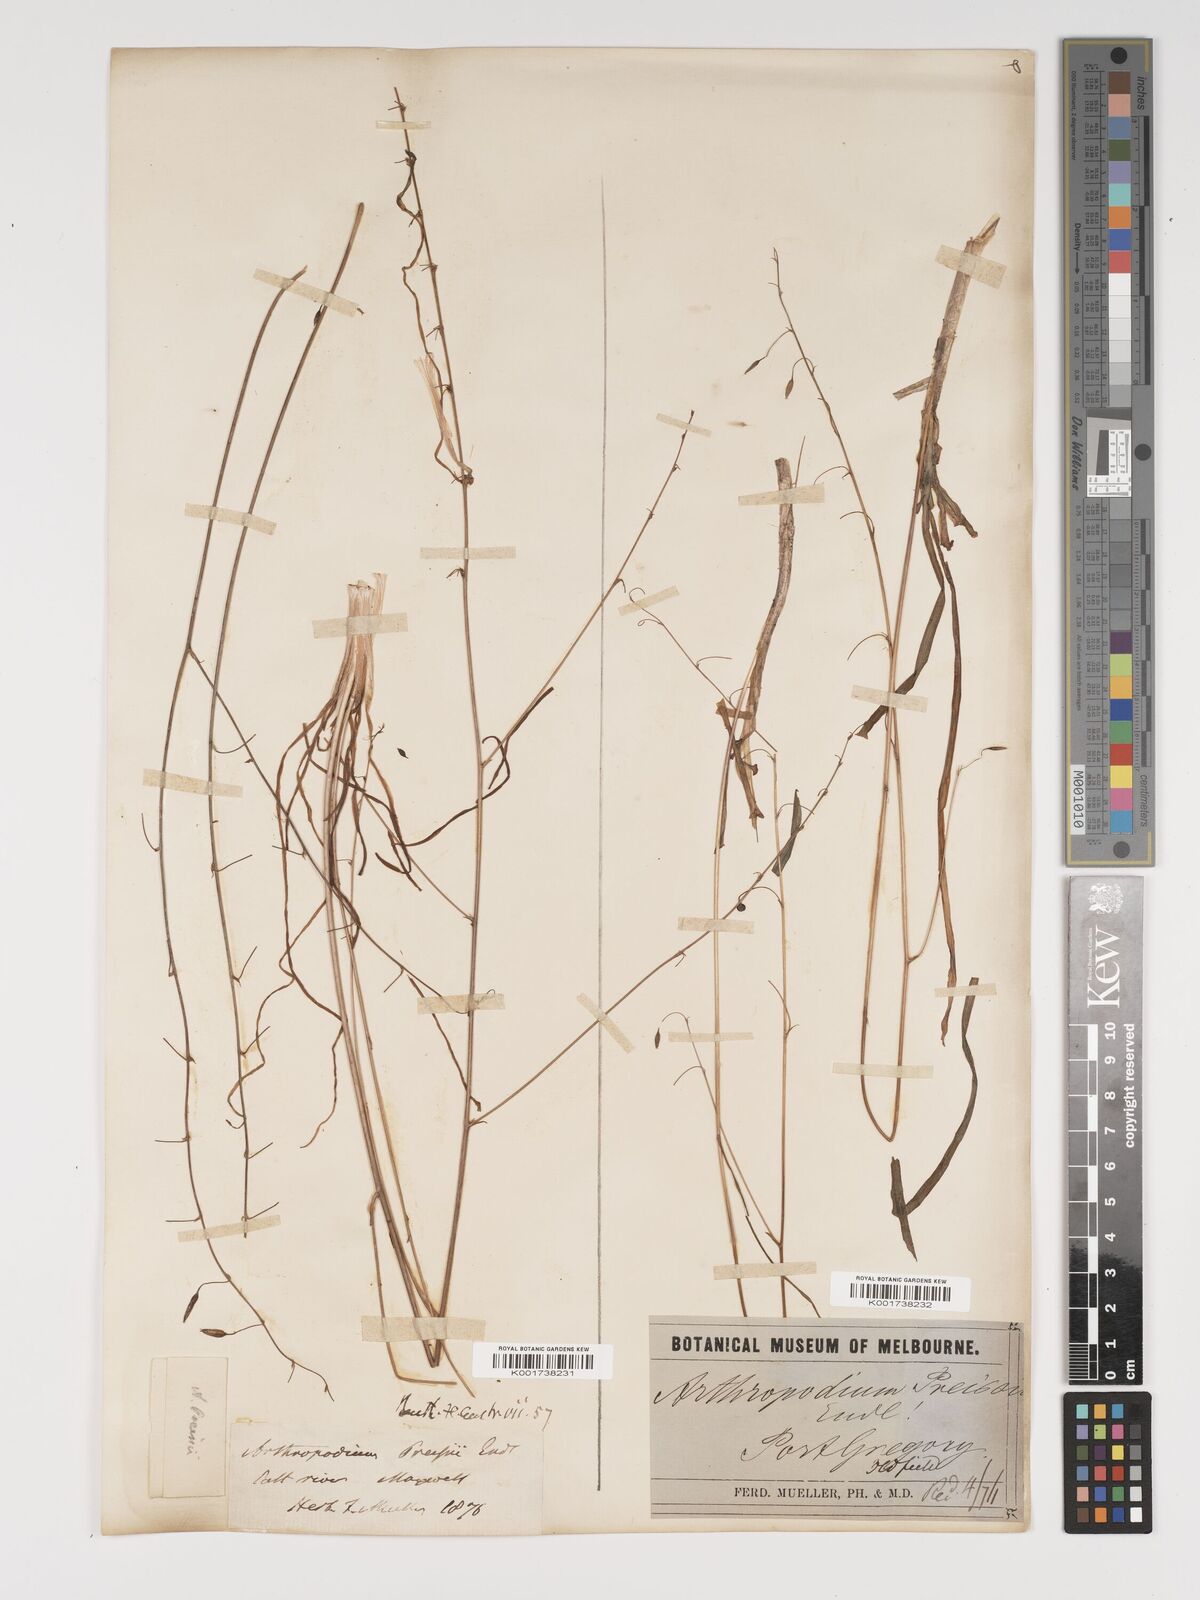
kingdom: Plantae
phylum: Tracheophyta
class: Liliopsida
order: Asparagales
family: Asparagaceae
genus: Dichopogon
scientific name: Dichopogon preissii
